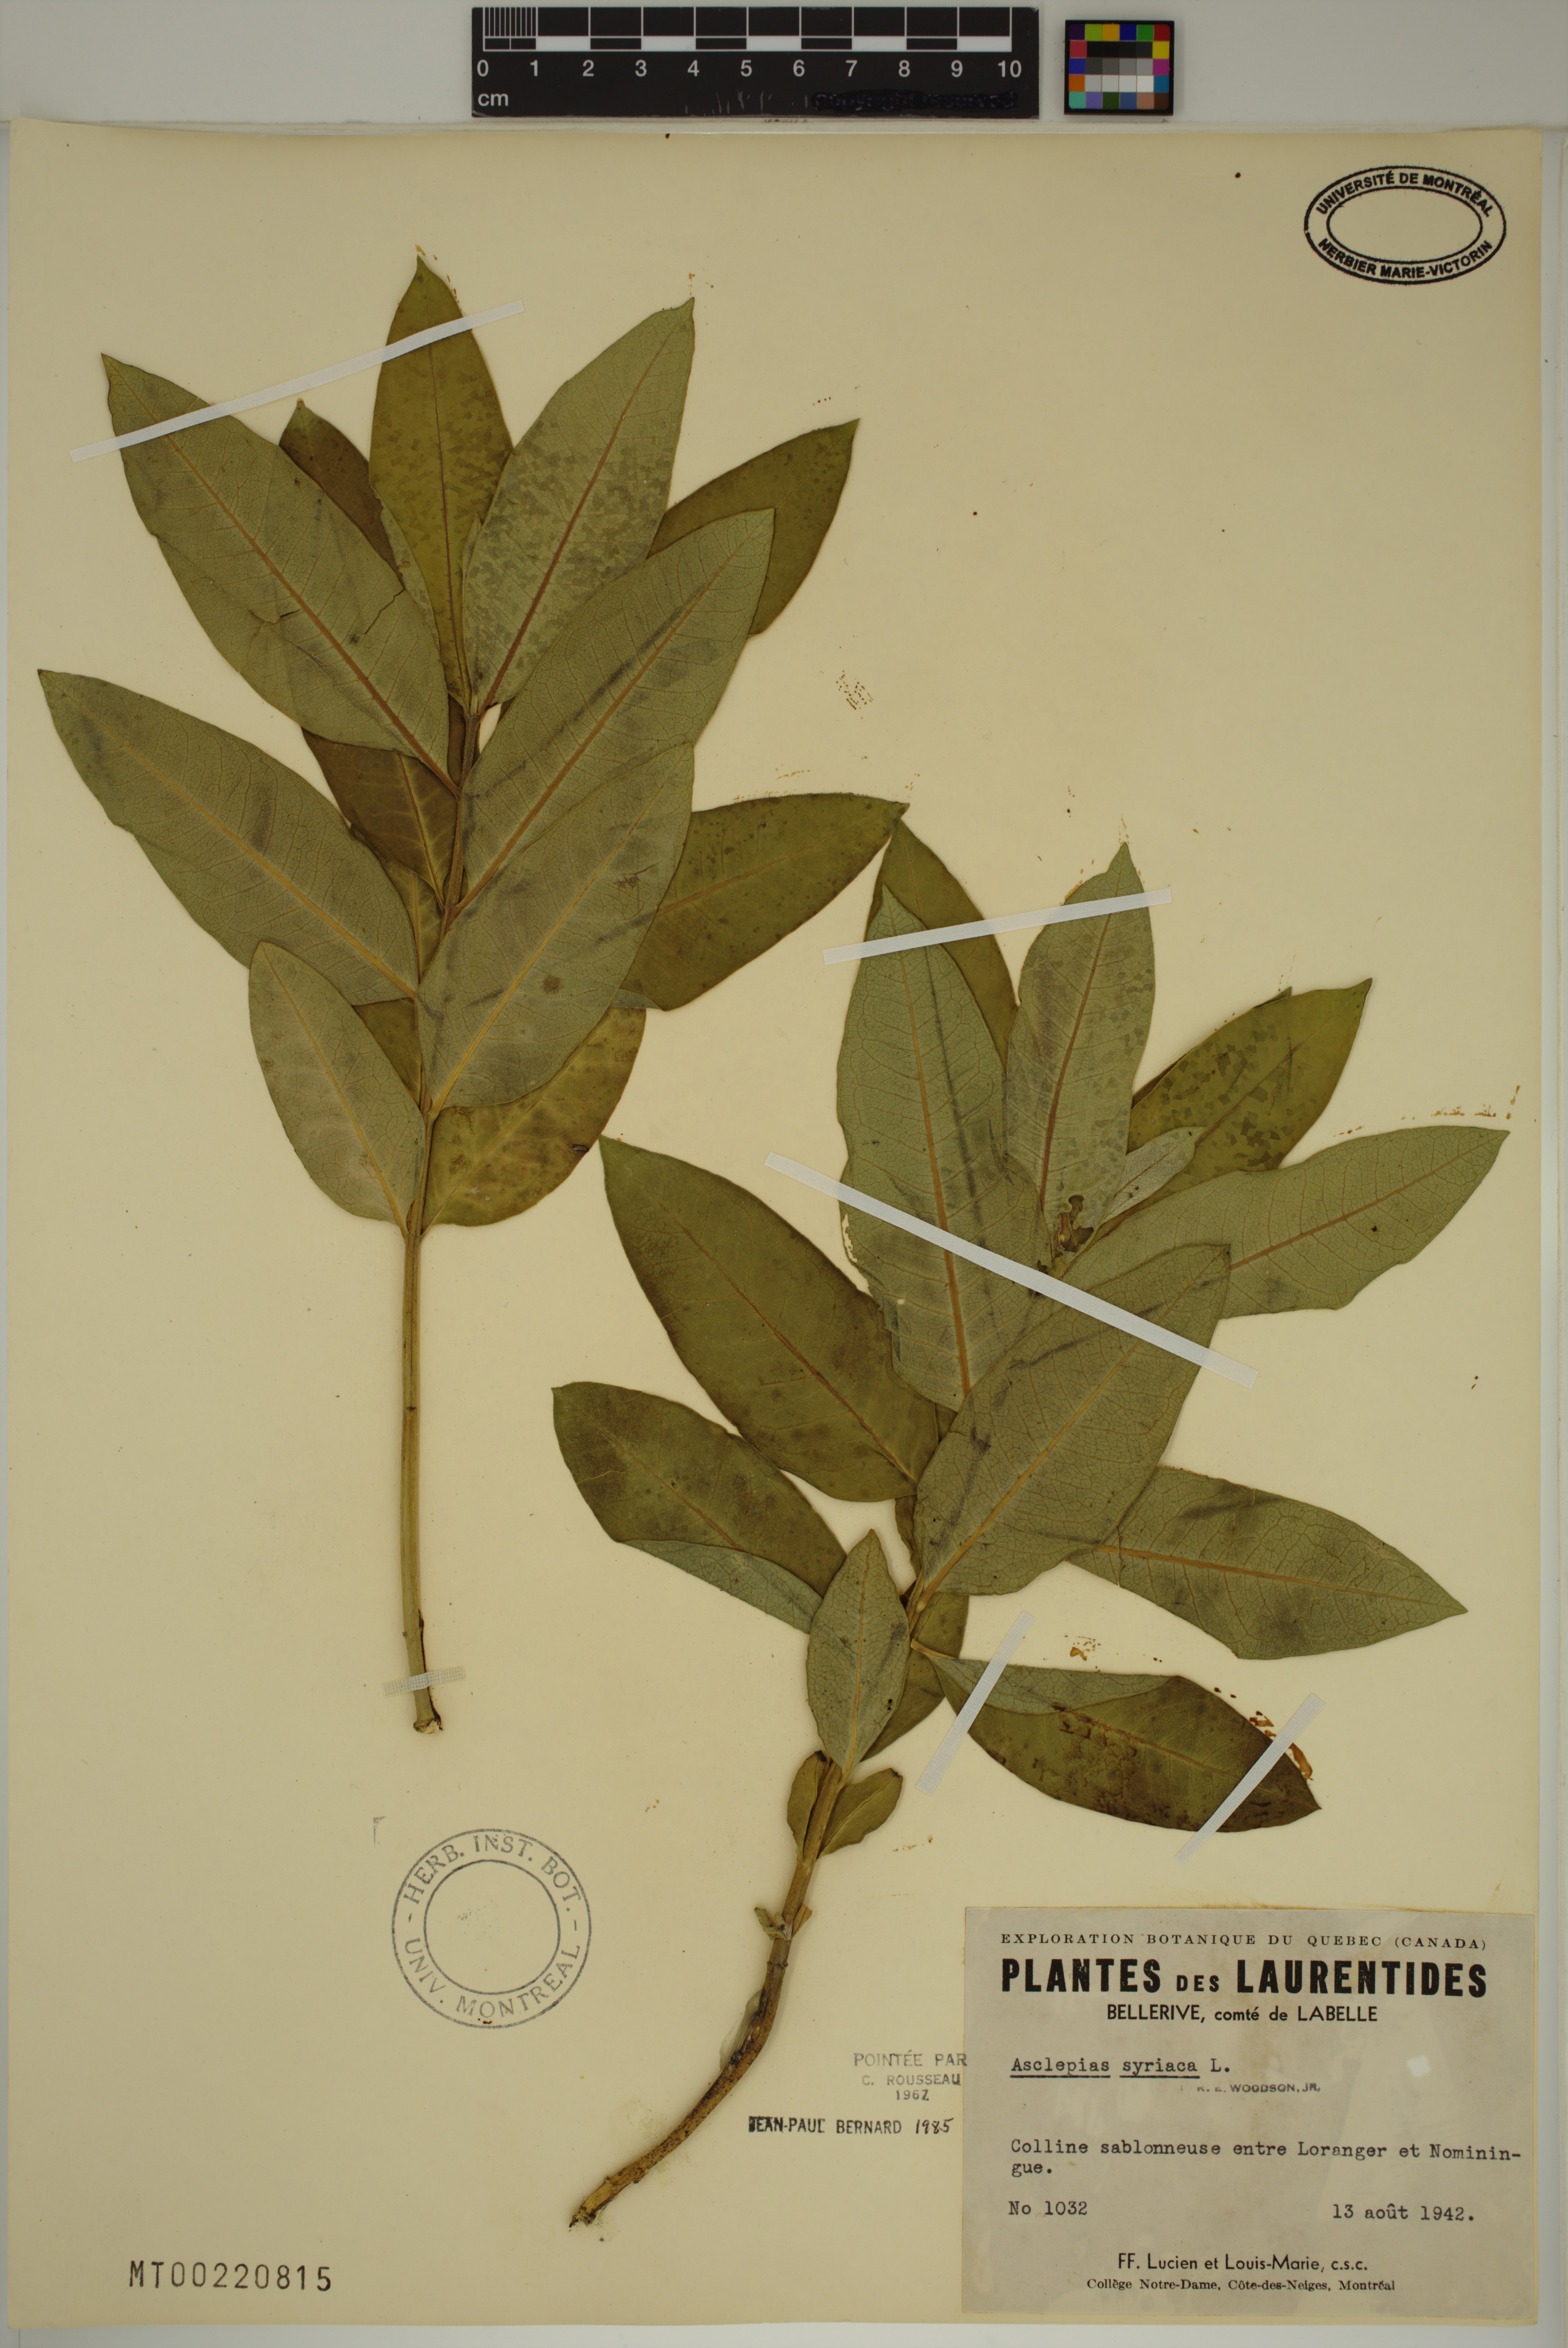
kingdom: Plantae
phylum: Tracheophyta
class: Magnoliopsida
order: Gentianales
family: Apocynaceae
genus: Asclepias
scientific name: Asclepias syriaca
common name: Common milkweed
